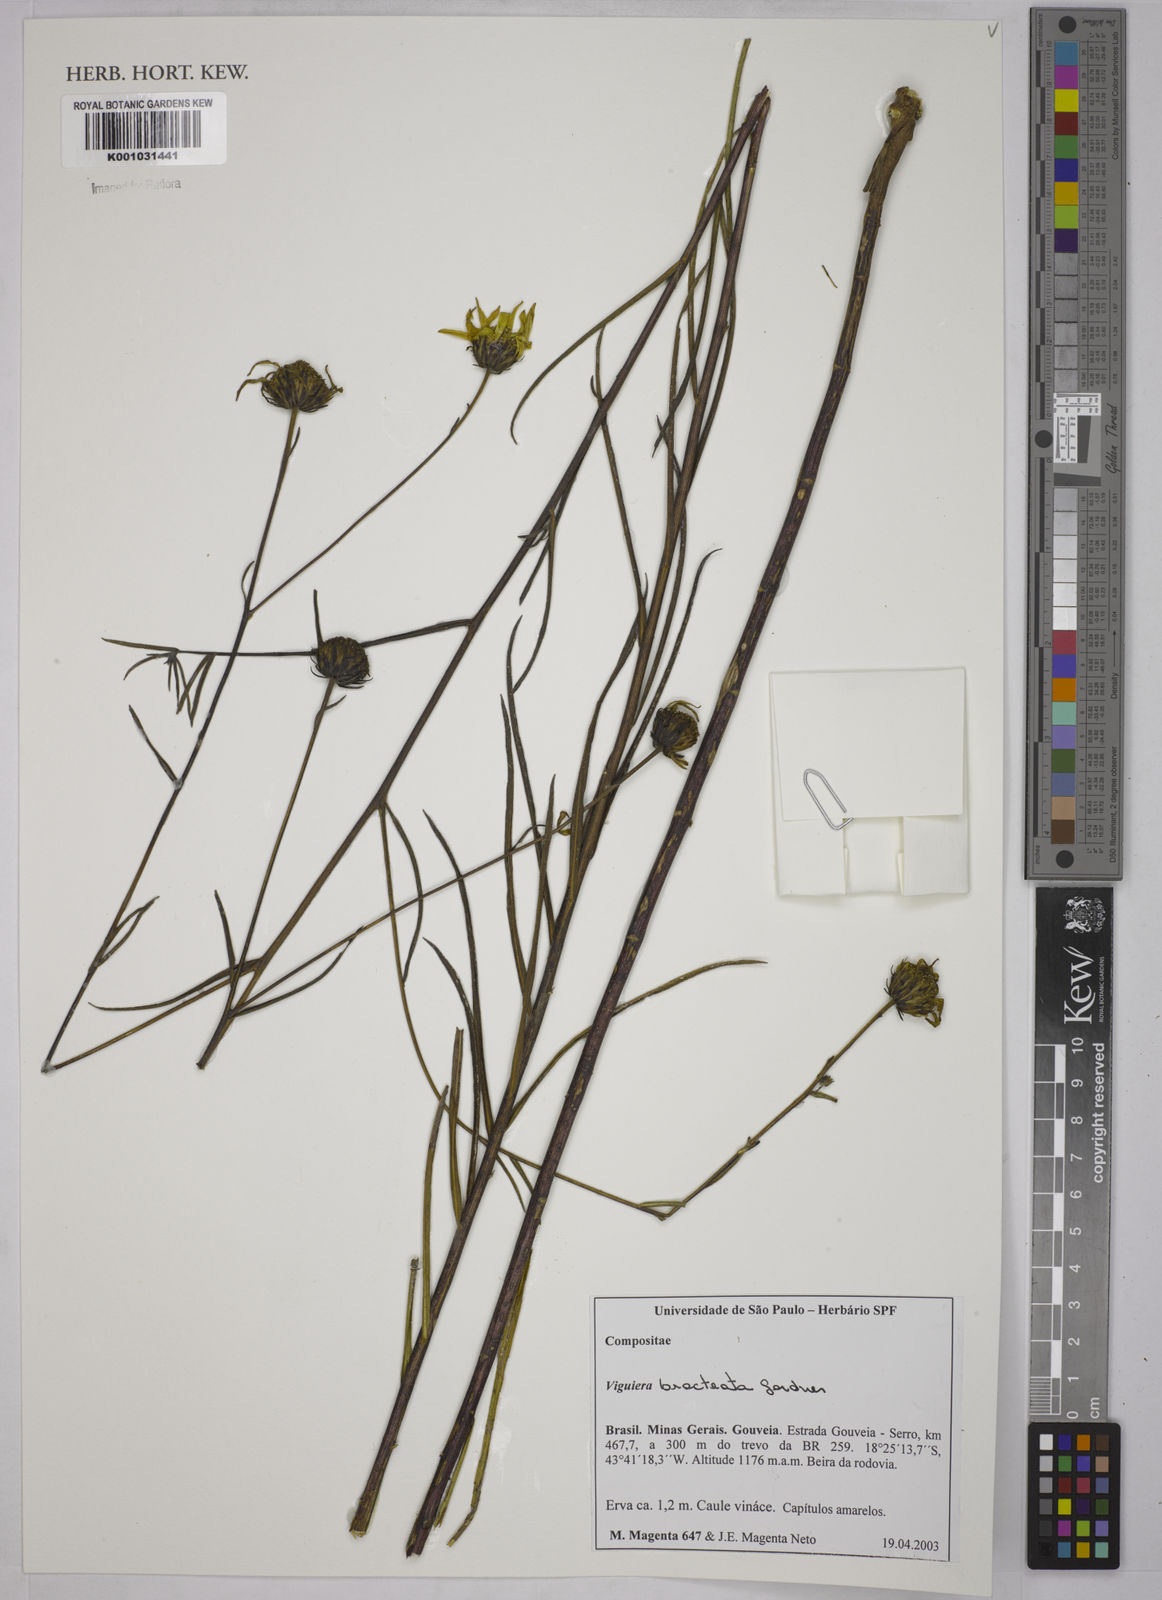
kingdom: Plantae
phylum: Tracheophyta
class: Magnoliopsida
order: Asterales
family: Asteraceae
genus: Aldama
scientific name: Aldama bracteata
